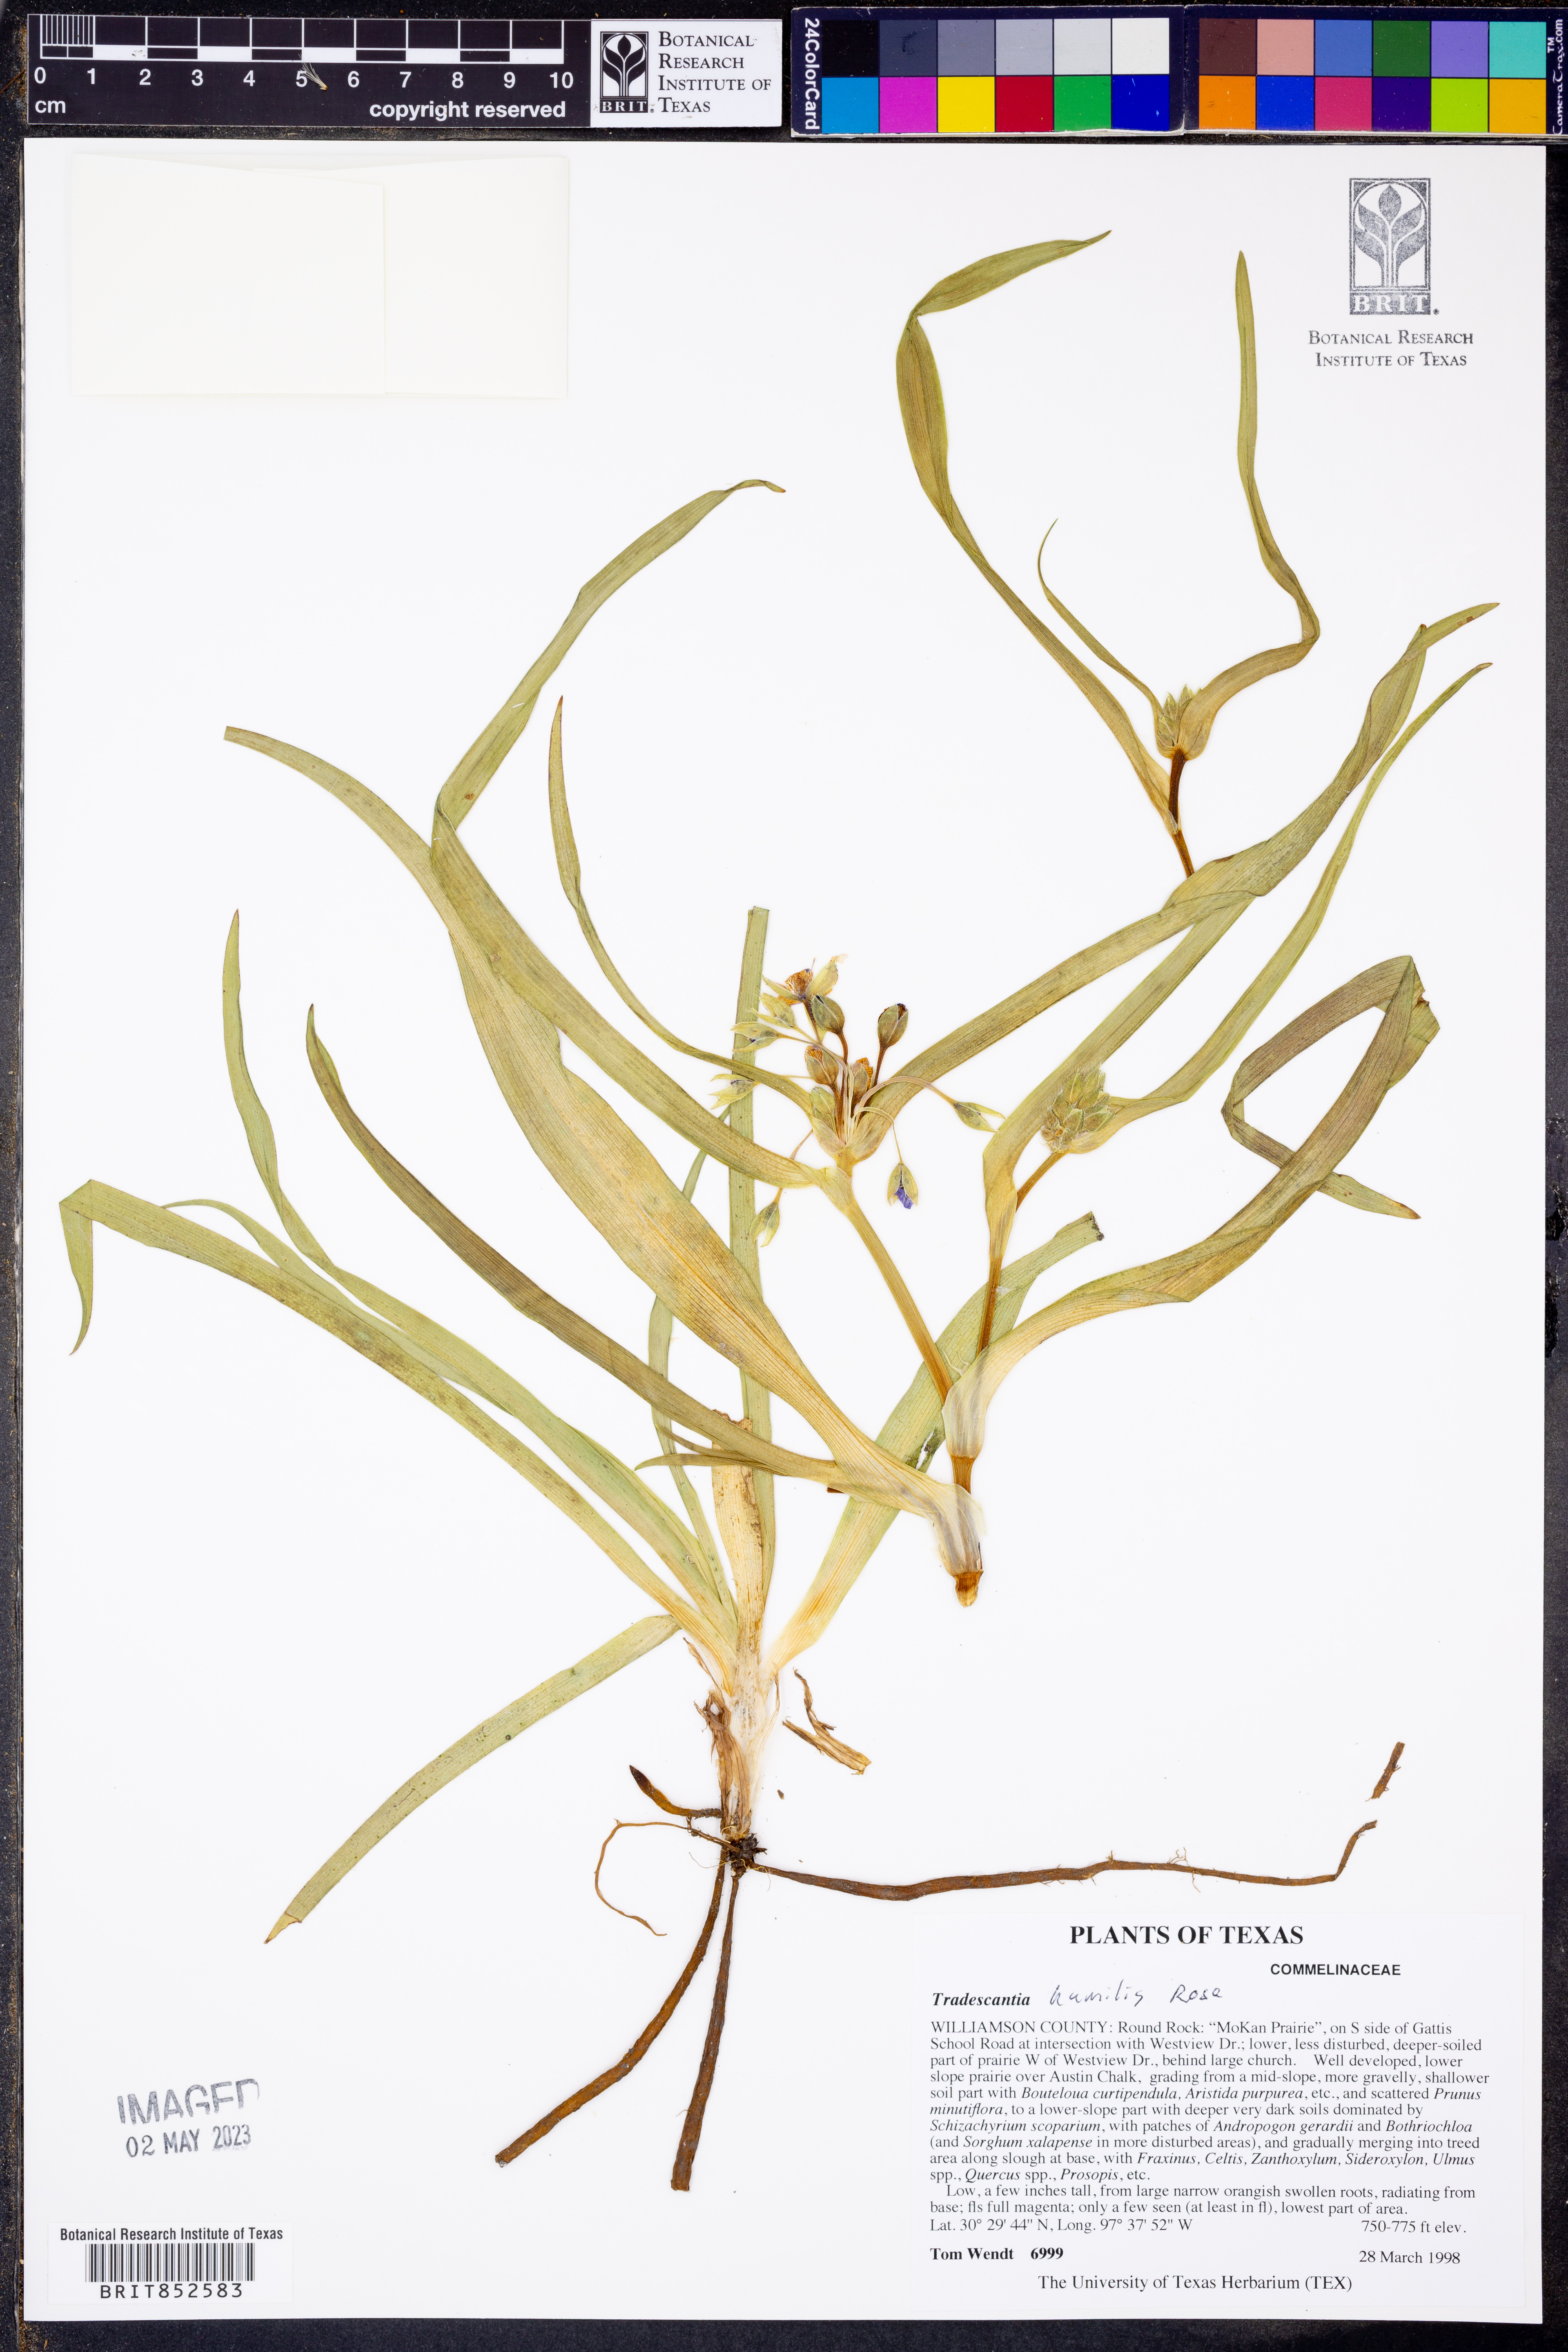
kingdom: Plantae
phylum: Tracheophyta
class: Liliopsida
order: Commelinales
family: Commelinaceae
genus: Tradescantia
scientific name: Tradescantia humilis
